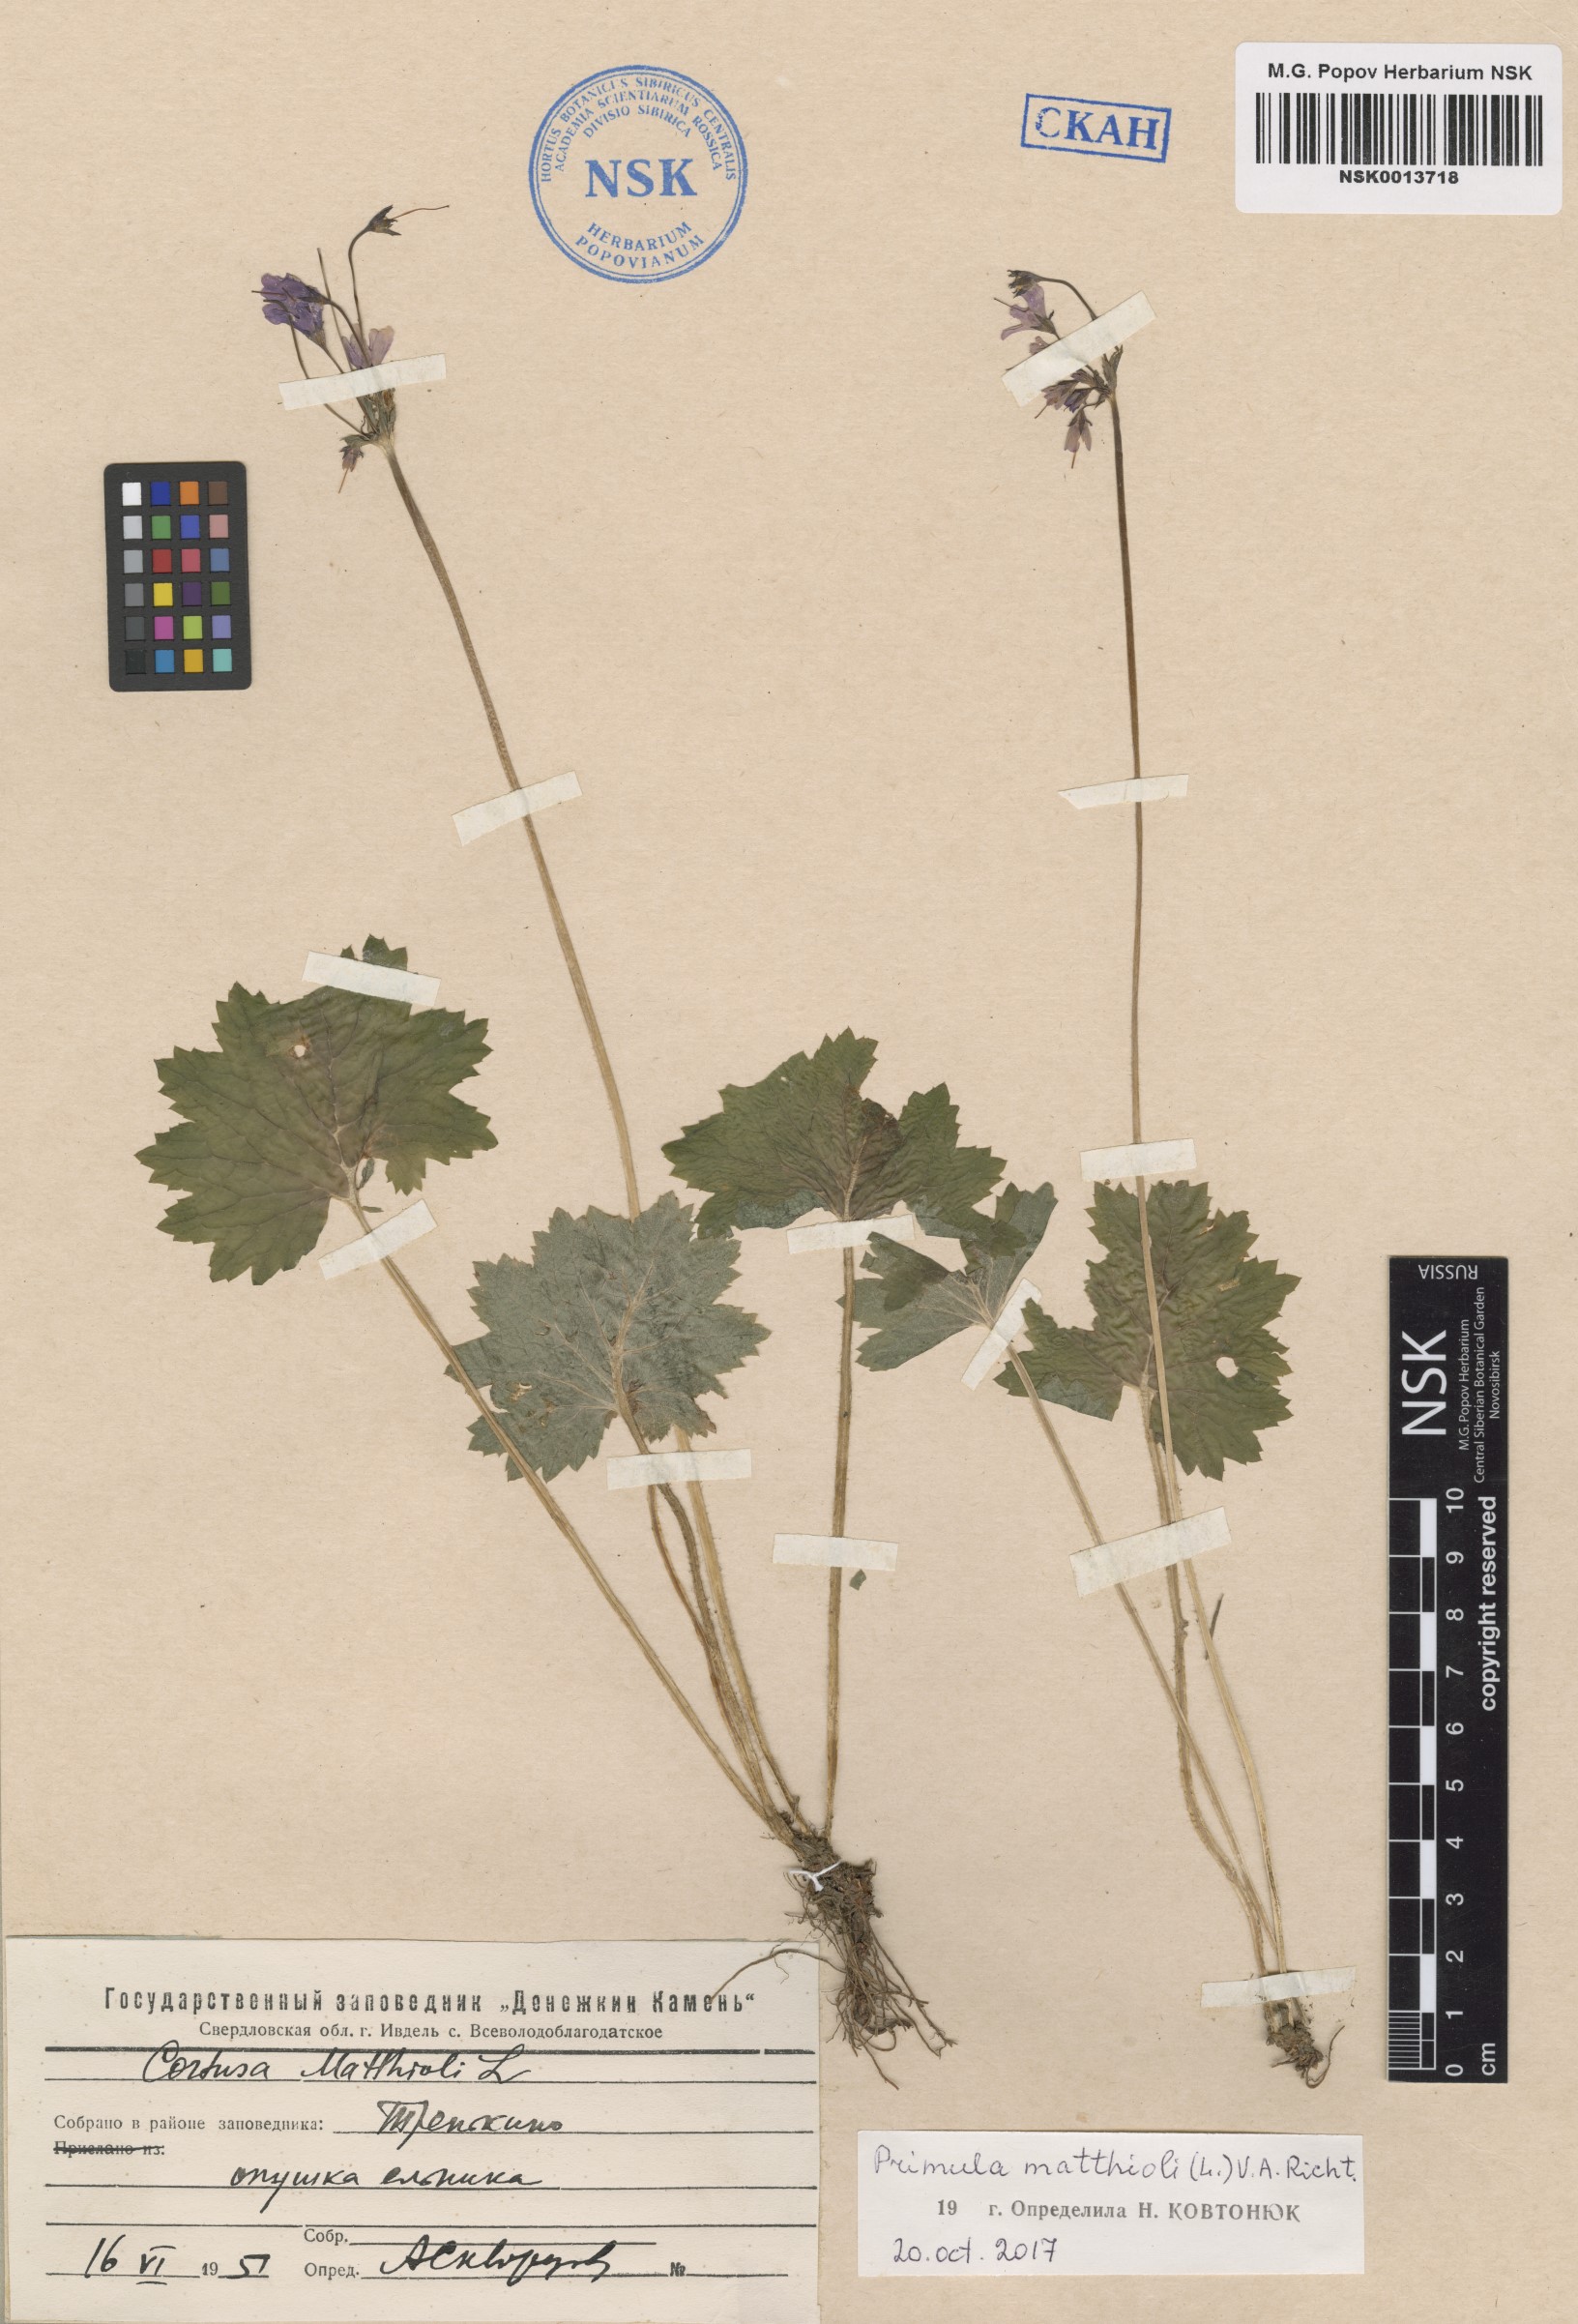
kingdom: Plantae
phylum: Tracheophyta
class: Magnoliopsida
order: Ericales
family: Primulaceae
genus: Primula
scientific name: Primula matthioli
